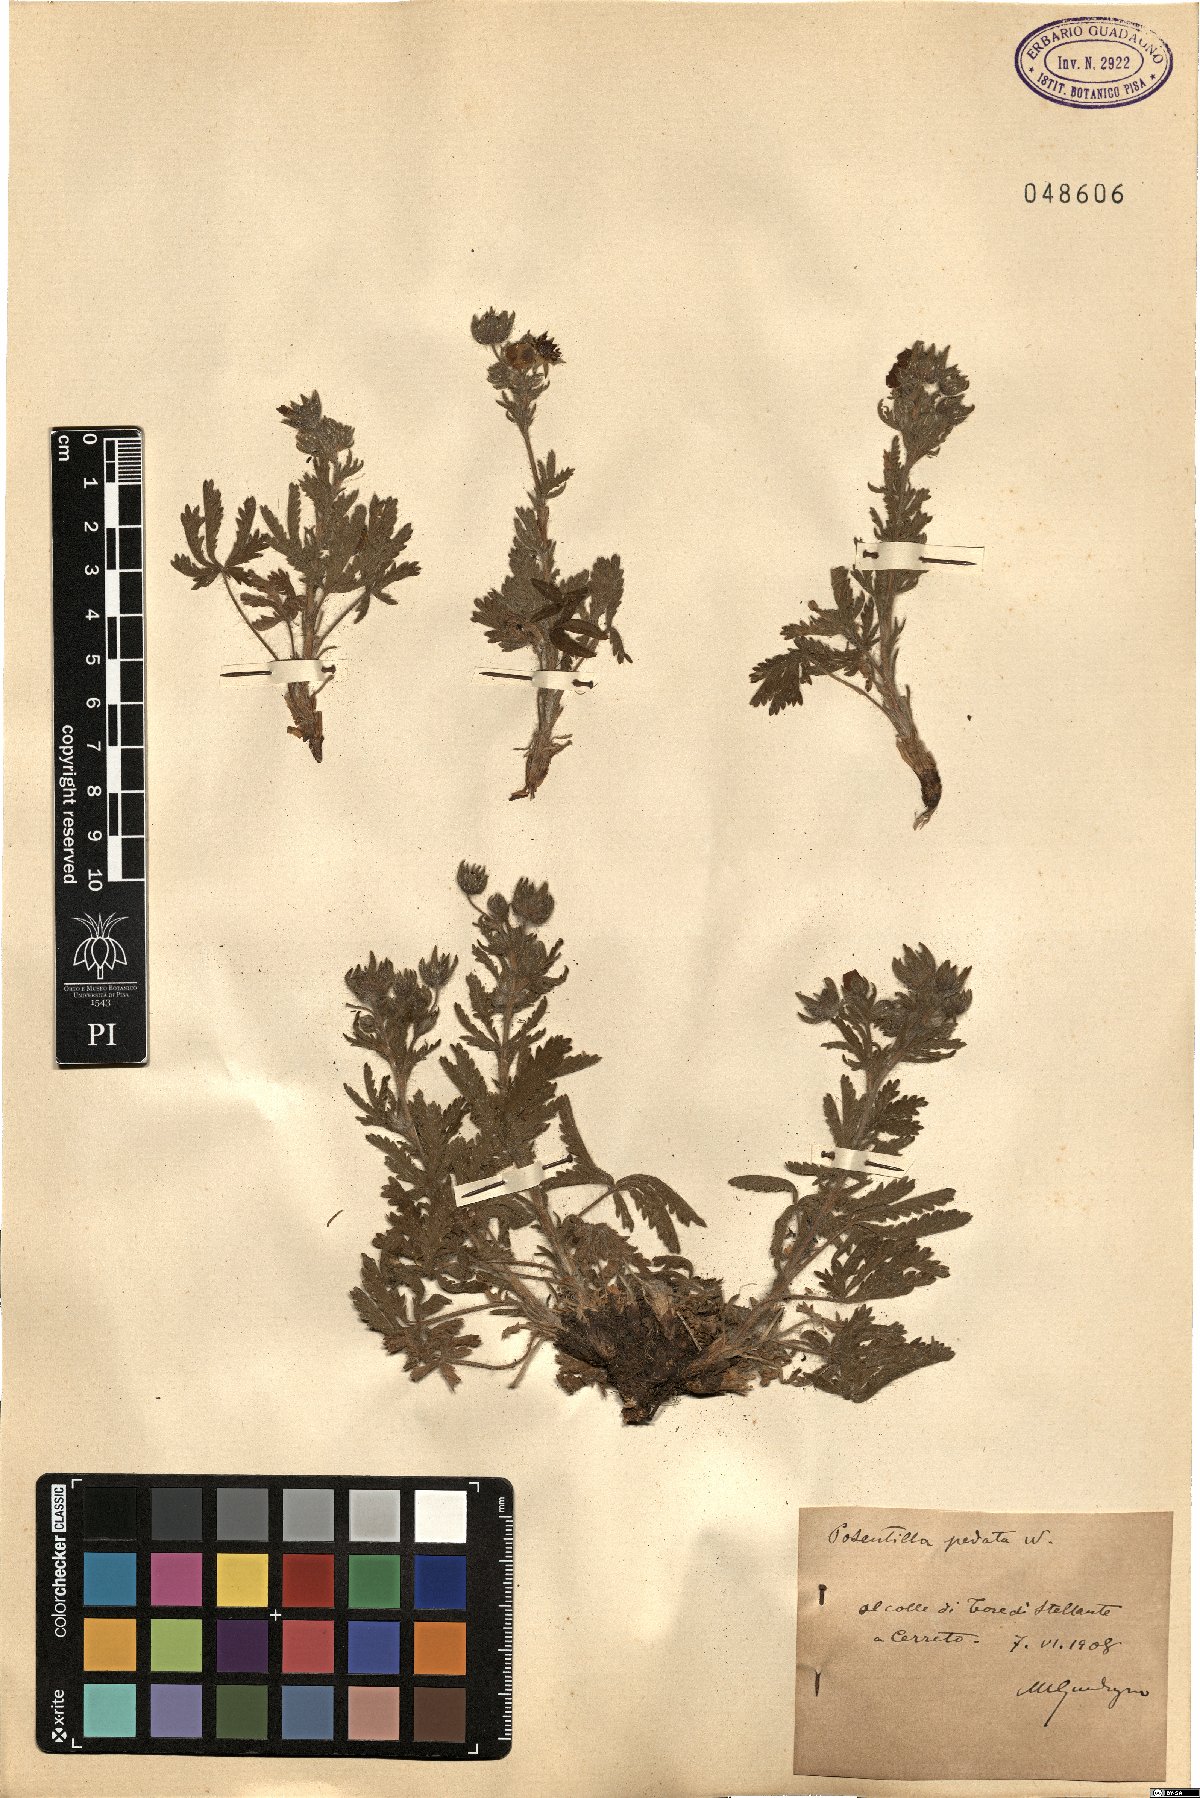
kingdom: Plantae
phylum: Tracheophyta
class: Magnoliopsida
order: Rosales
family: Rosaceae
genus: Potentilla
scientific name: Potentilla pedata
